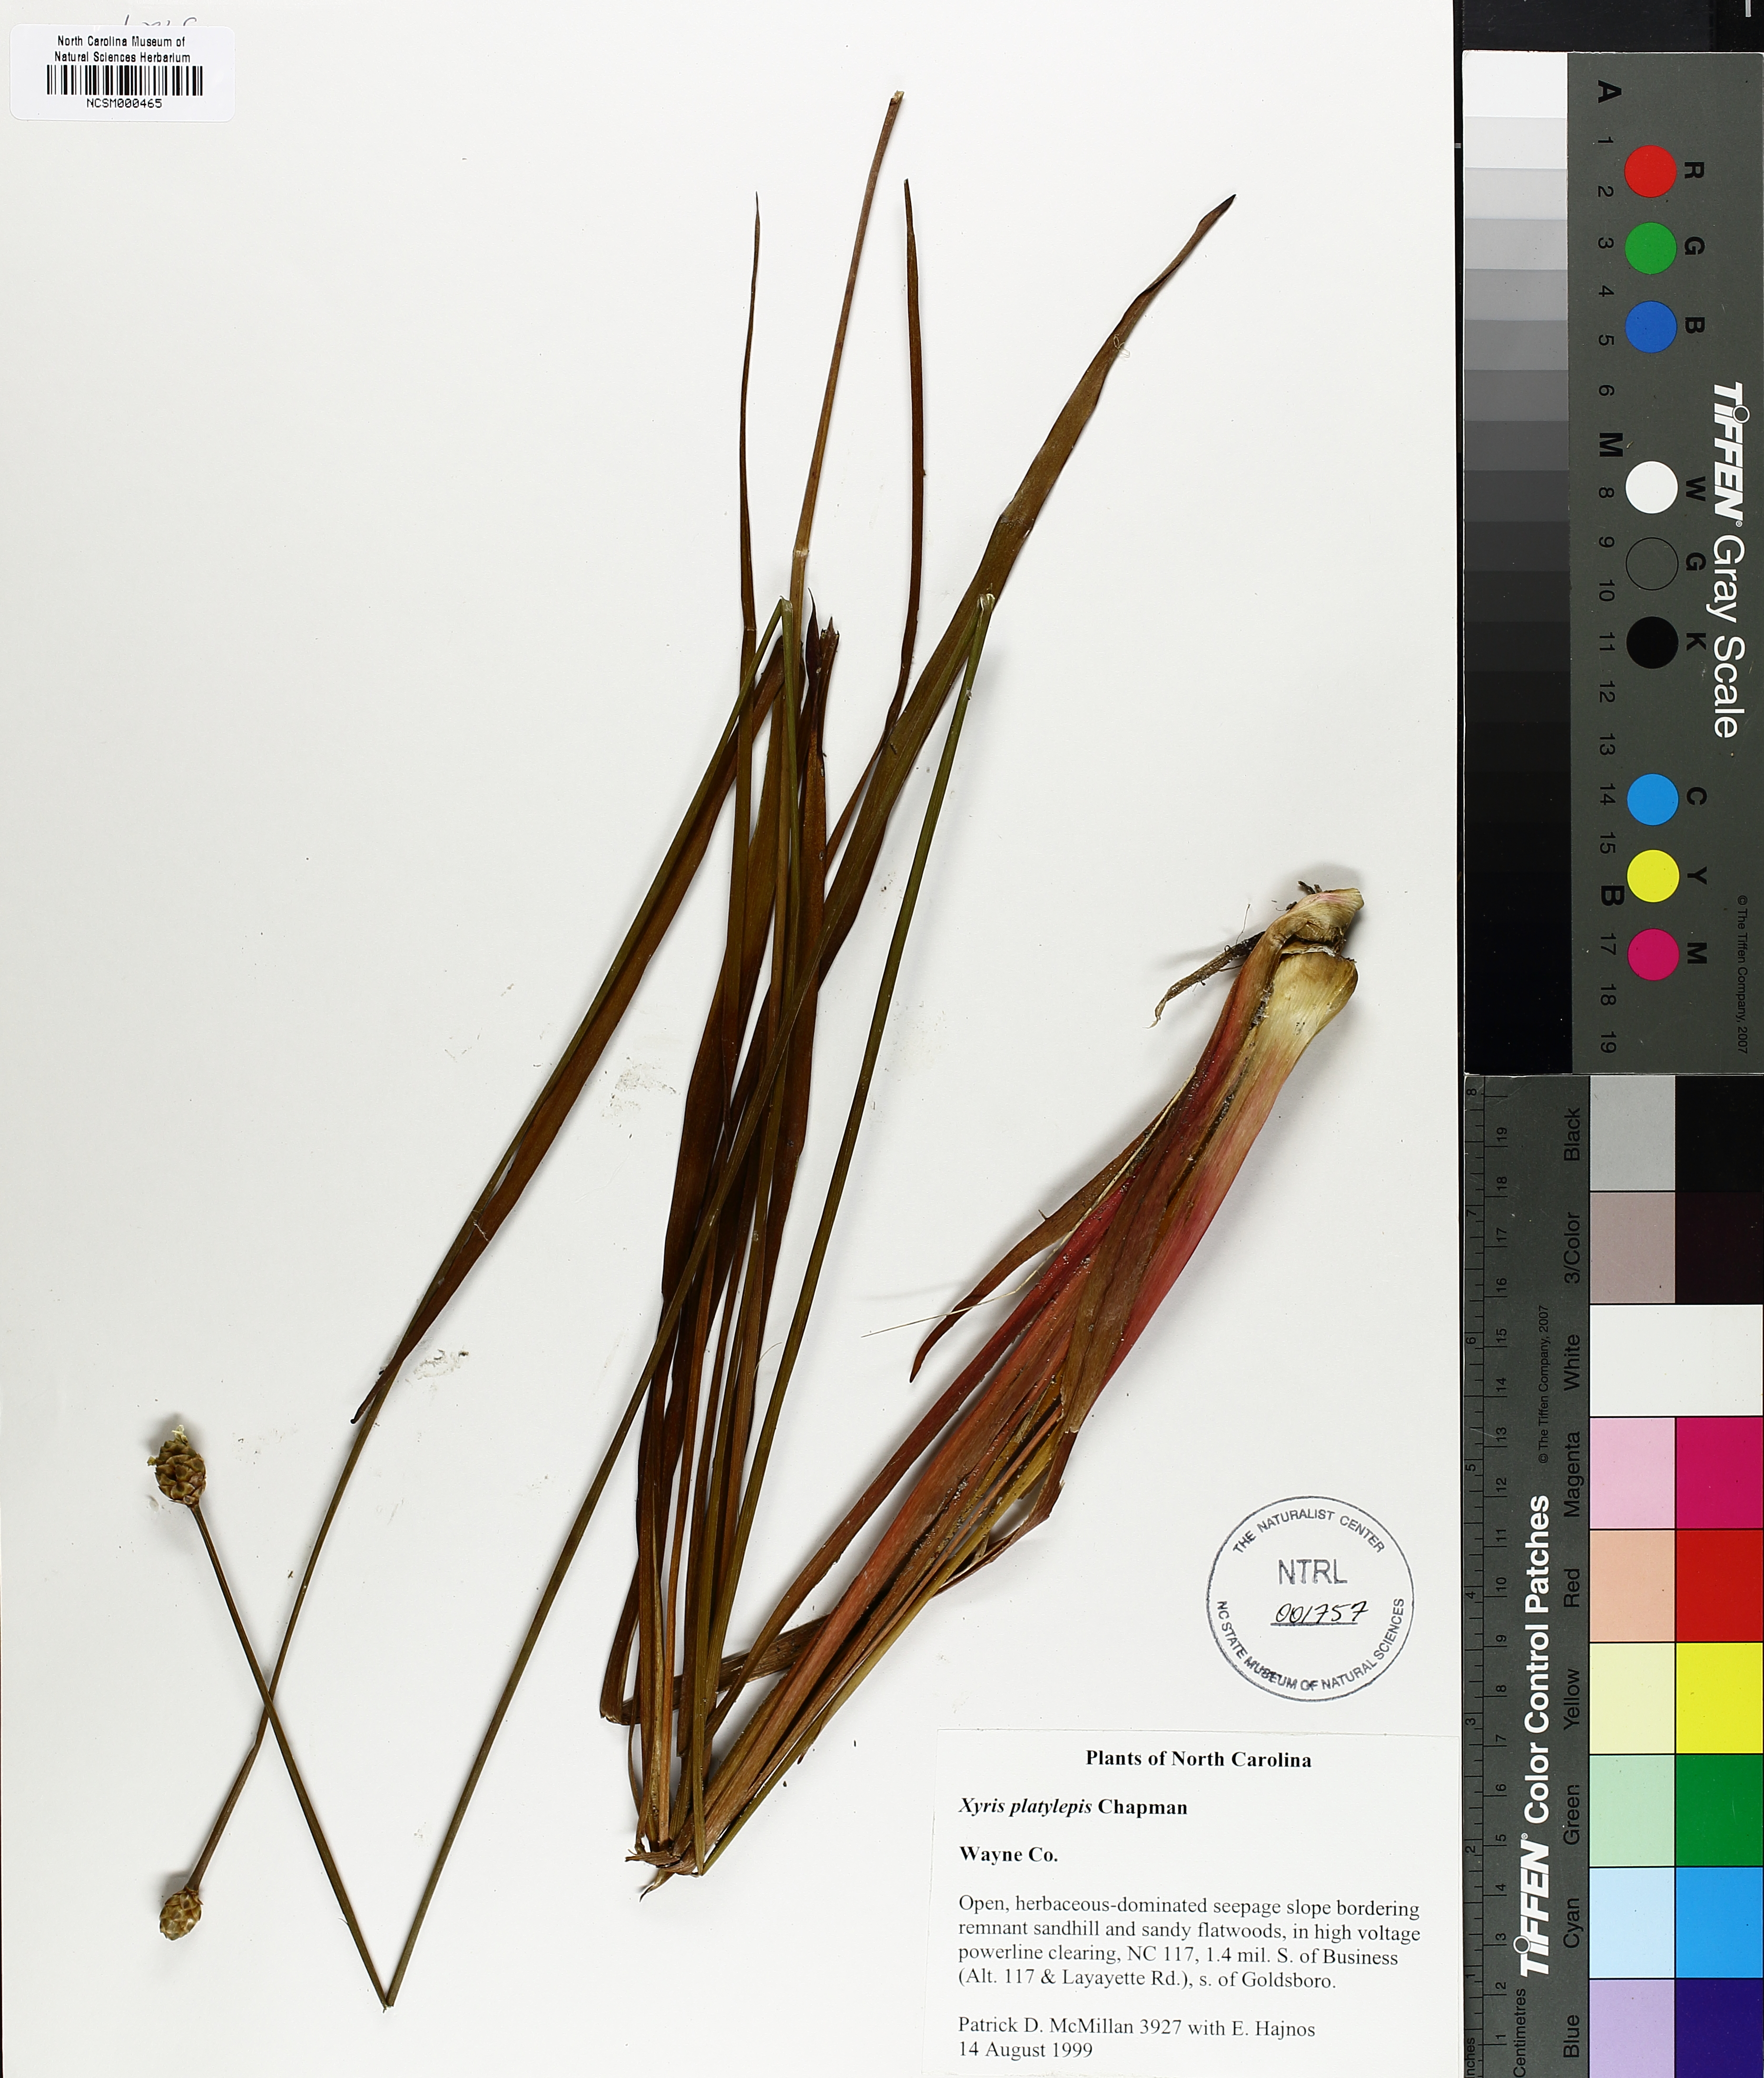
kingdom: Plantae
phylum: Tracheophyta
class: Liliopsida
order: Poales
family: Xyridaceae
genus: Xyris
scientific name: Xyris platylepis
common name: Tall yelloweyed grass
